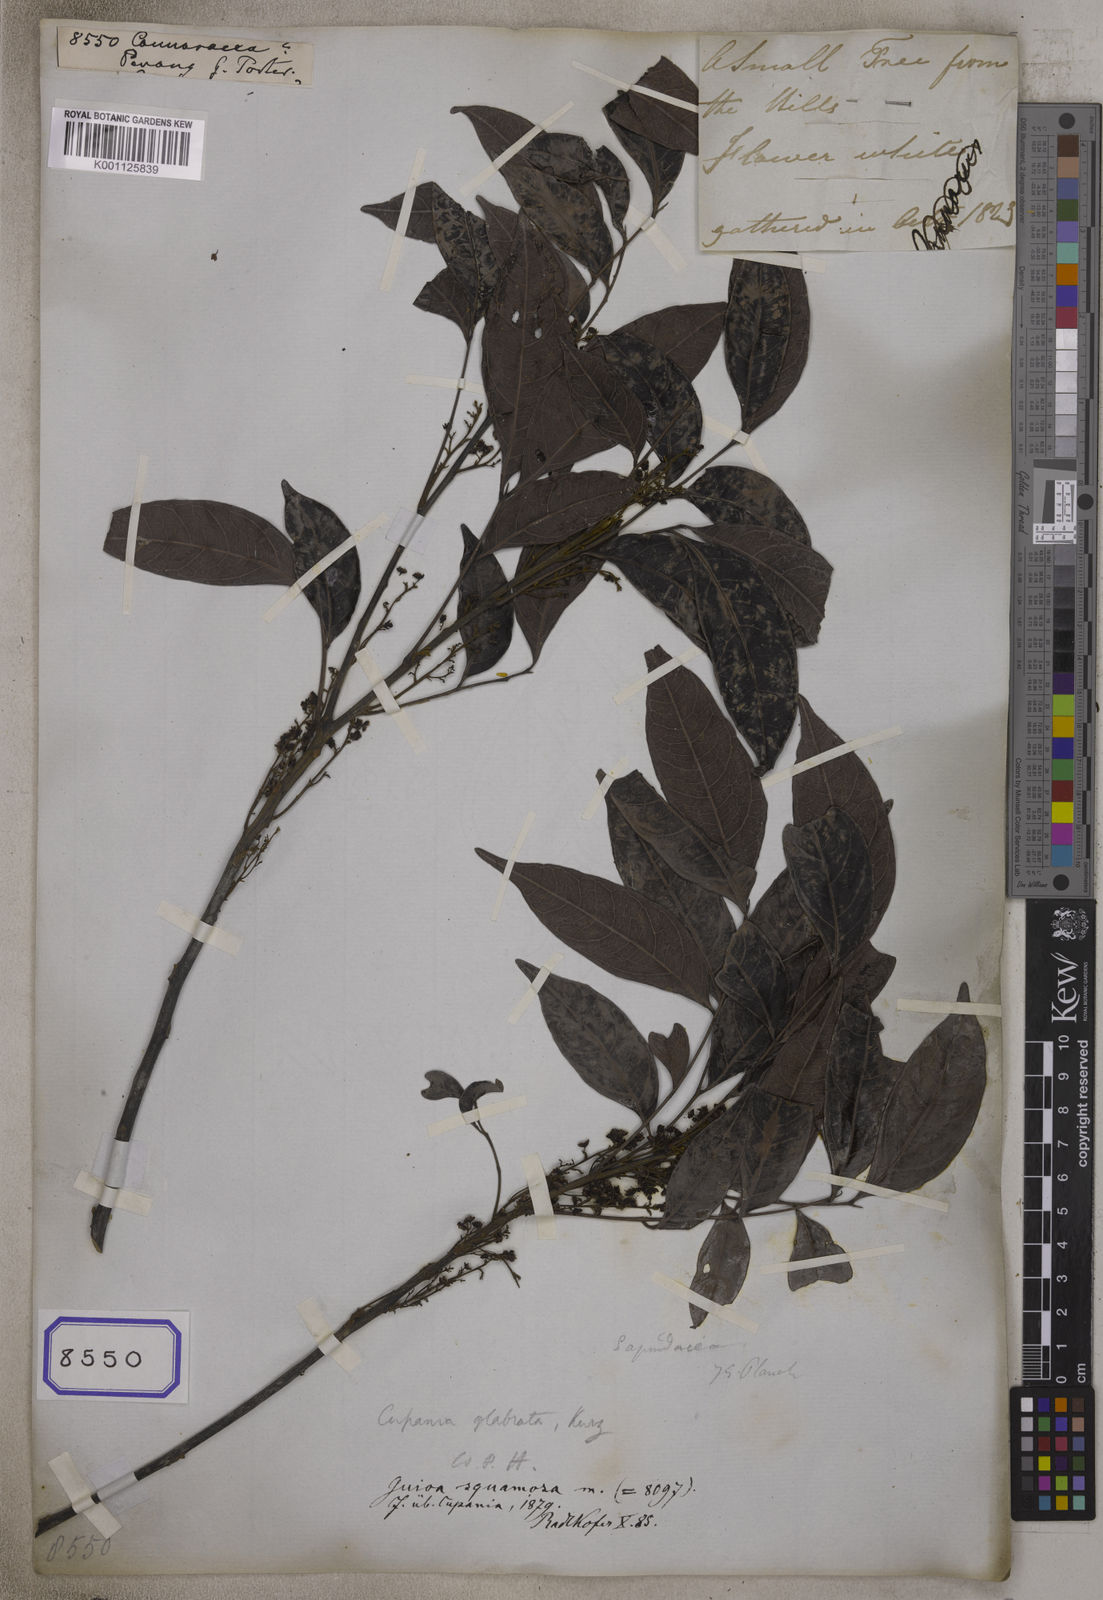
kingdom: Plantae
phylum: Tracheophyta
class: Magnoliopsida
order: Oxalidales
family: Connaraceae
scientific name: Connaraceae
